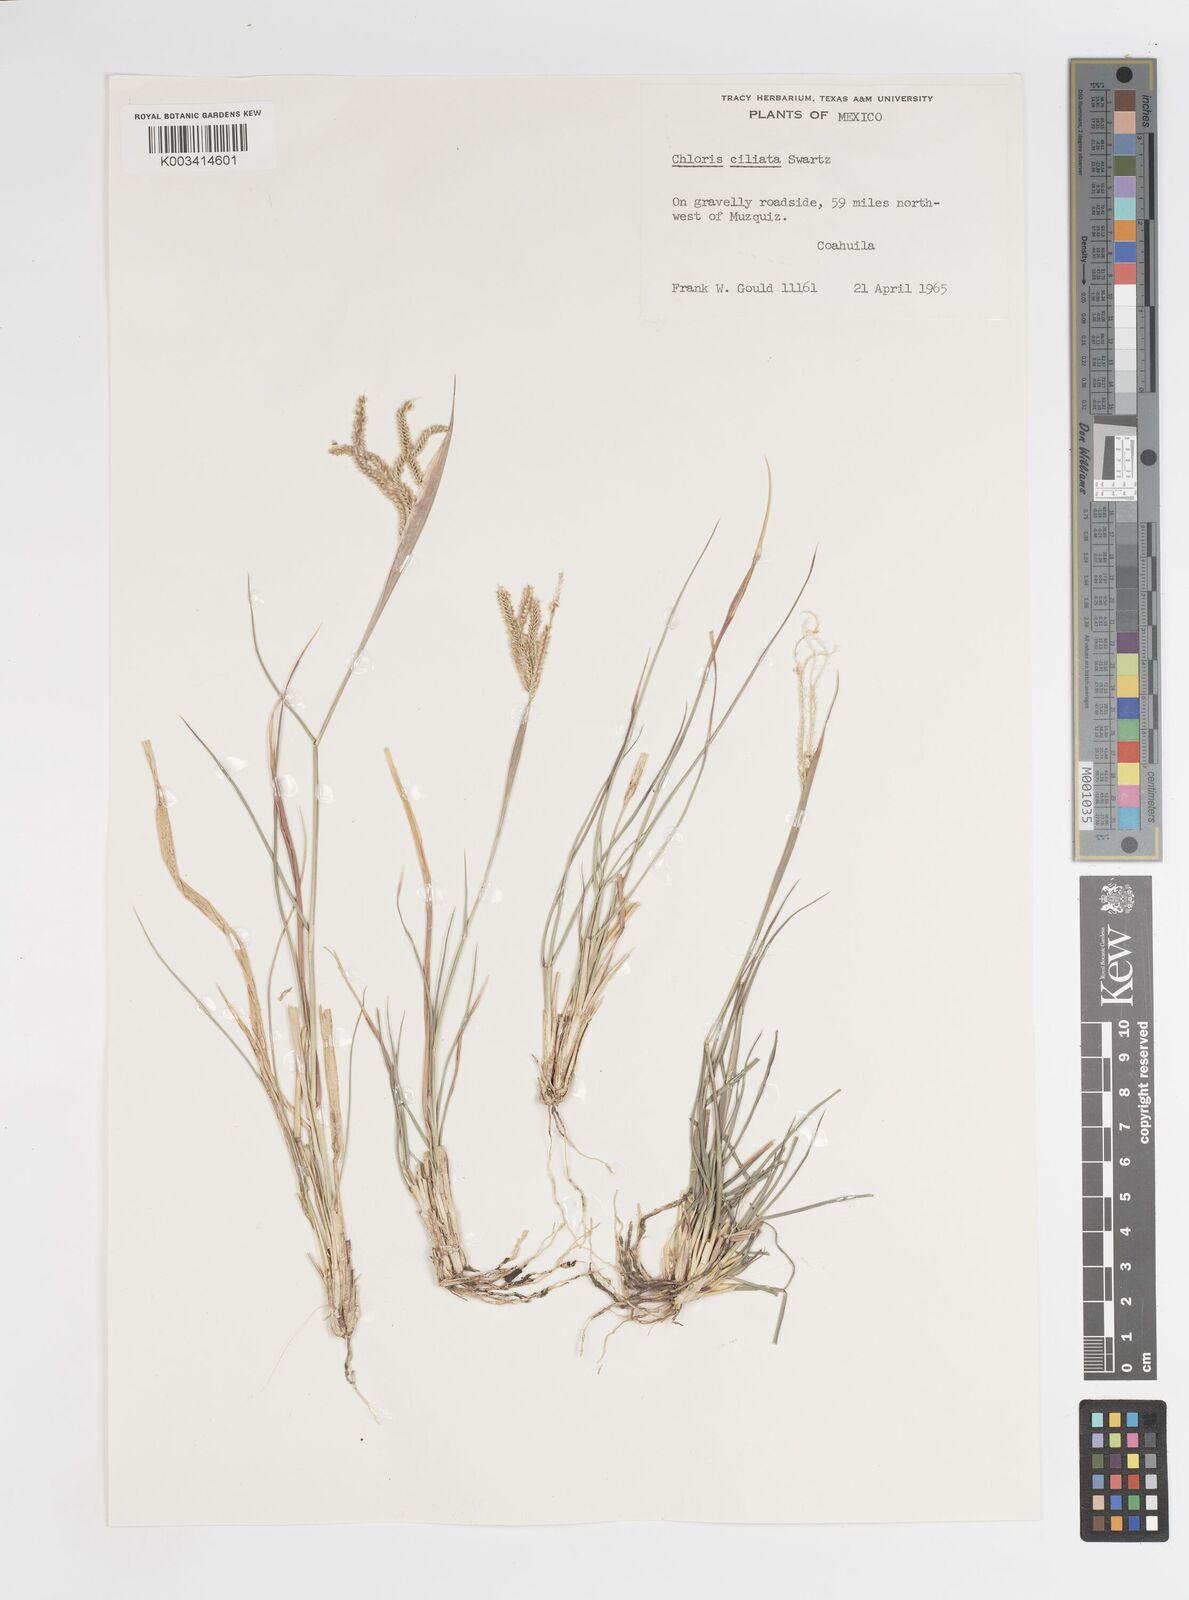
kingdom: Plantae
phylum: Tracheophyta
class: Liliopsida
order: Poales
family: Poaceae
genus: Stapfochloa
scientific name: Stapfochloa ciliata
